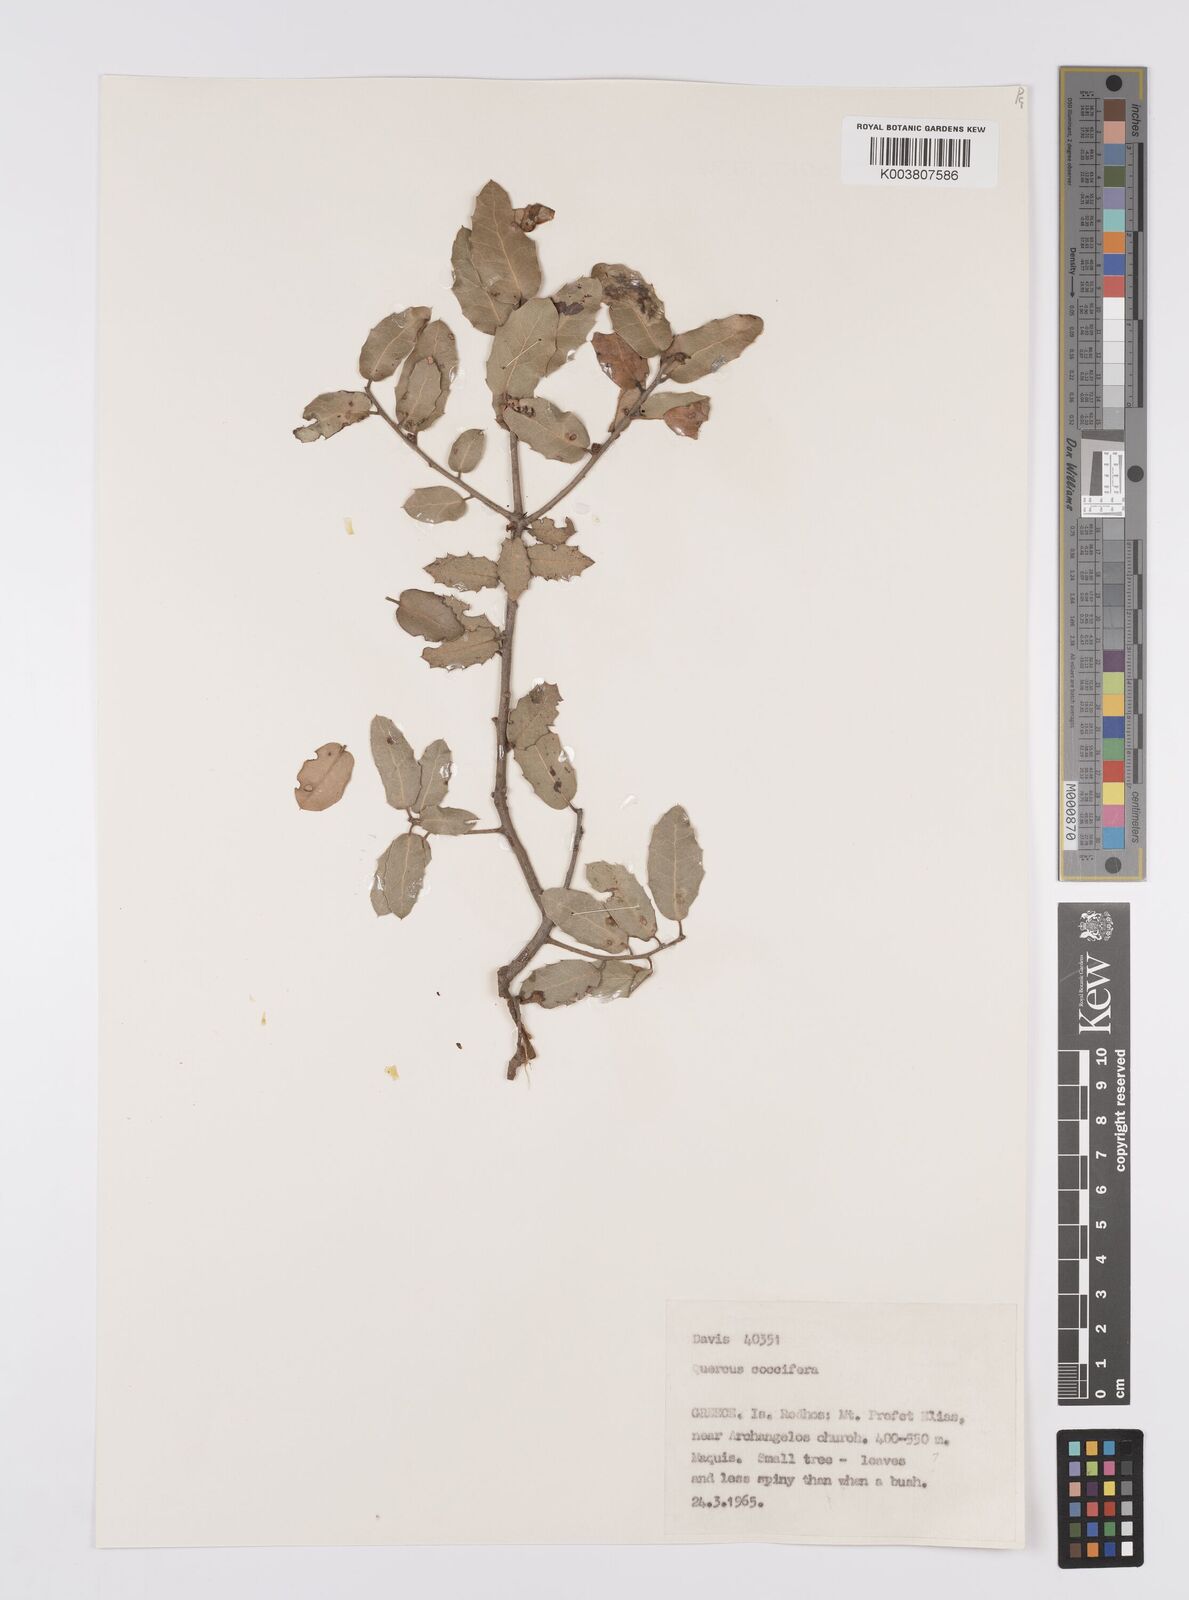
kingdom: Plantae
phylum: Tracheophyta
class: Magnoliopsida
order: Fagales
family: Fagaceae
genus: Quercus
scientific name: Quercus coccifera
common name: Kermes oak
